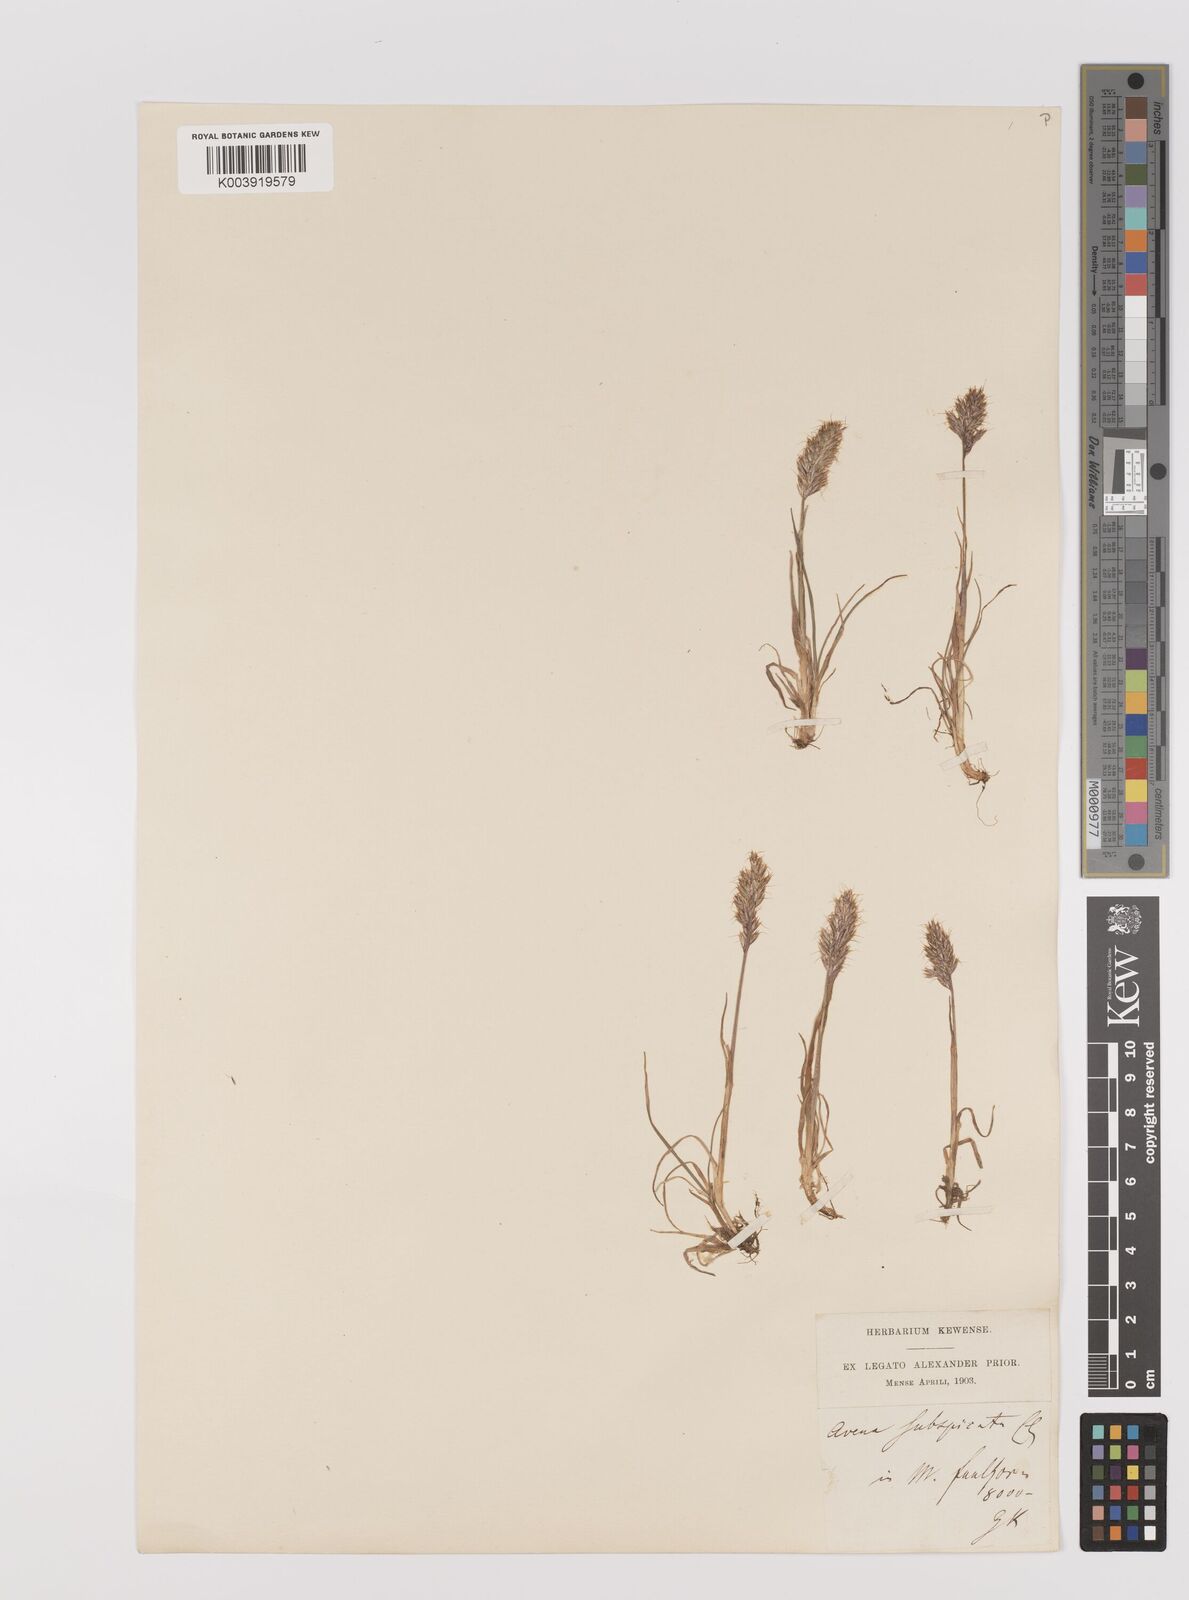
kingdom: Plantae
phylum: Tracheophyta
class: Liliopsida
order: Poales
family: Poaceae
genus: Koeleria
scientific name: Koeleria spicata
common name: Mountain trisetum
